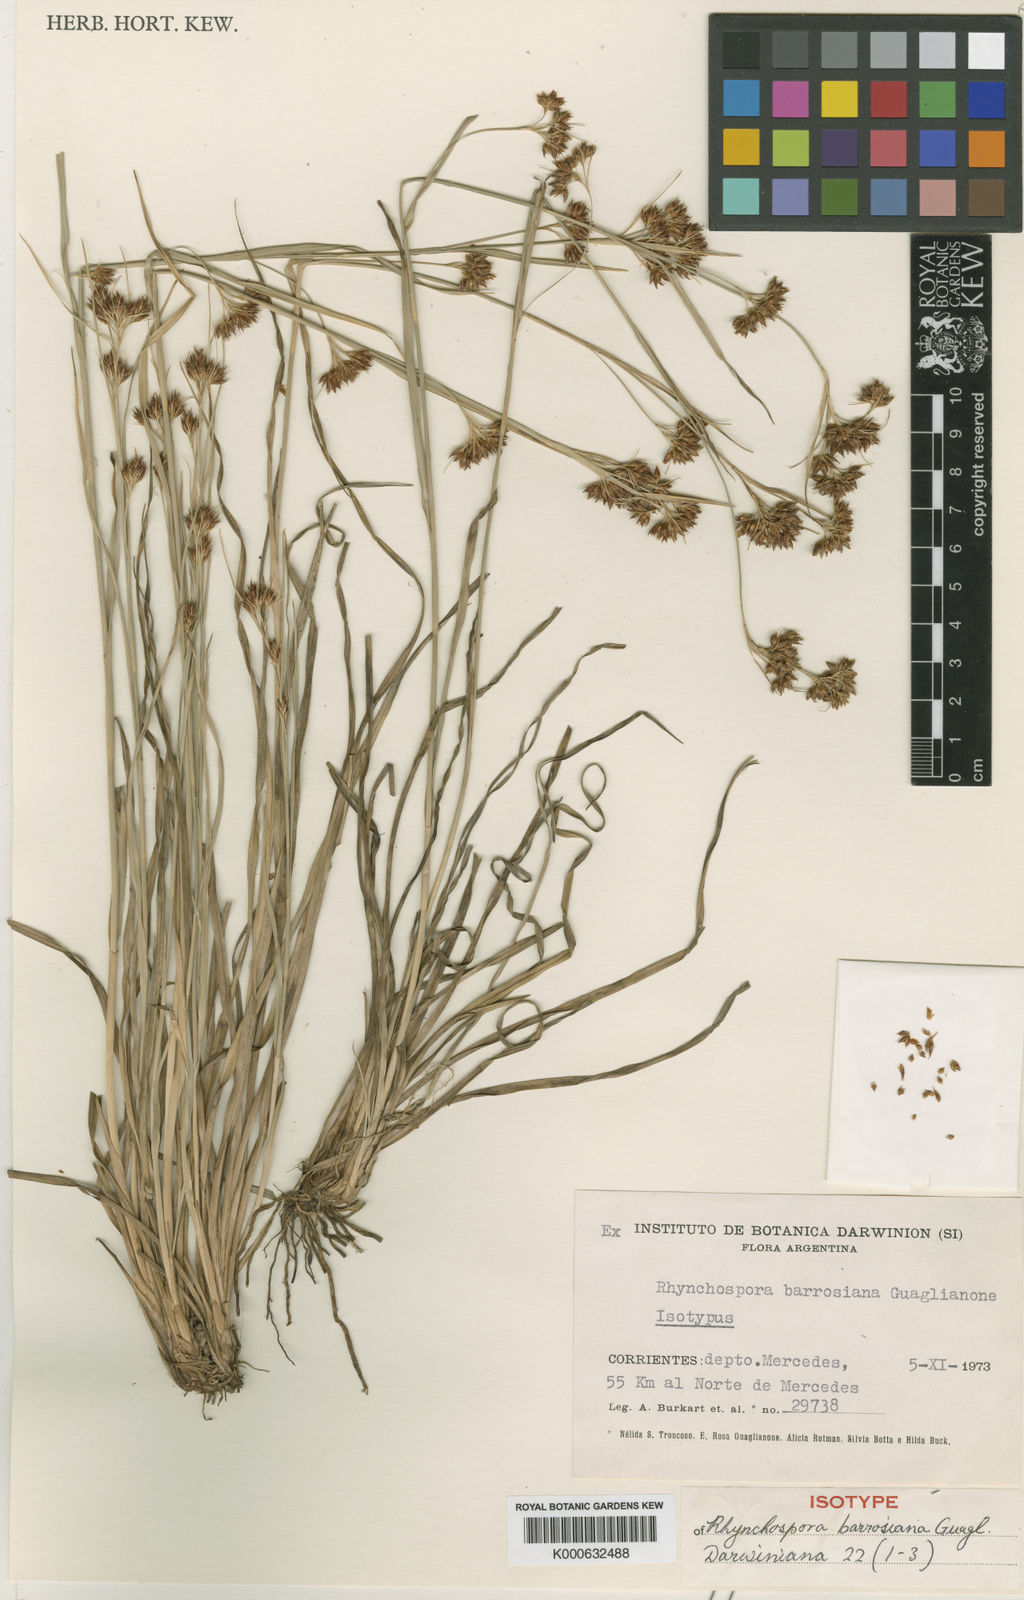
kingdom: Plantae
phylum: Tracheophyta
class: Liliopsida
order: Poales
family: Cyperaceae
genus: Rhynchospora
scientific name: Rhynchospora barrosiana
